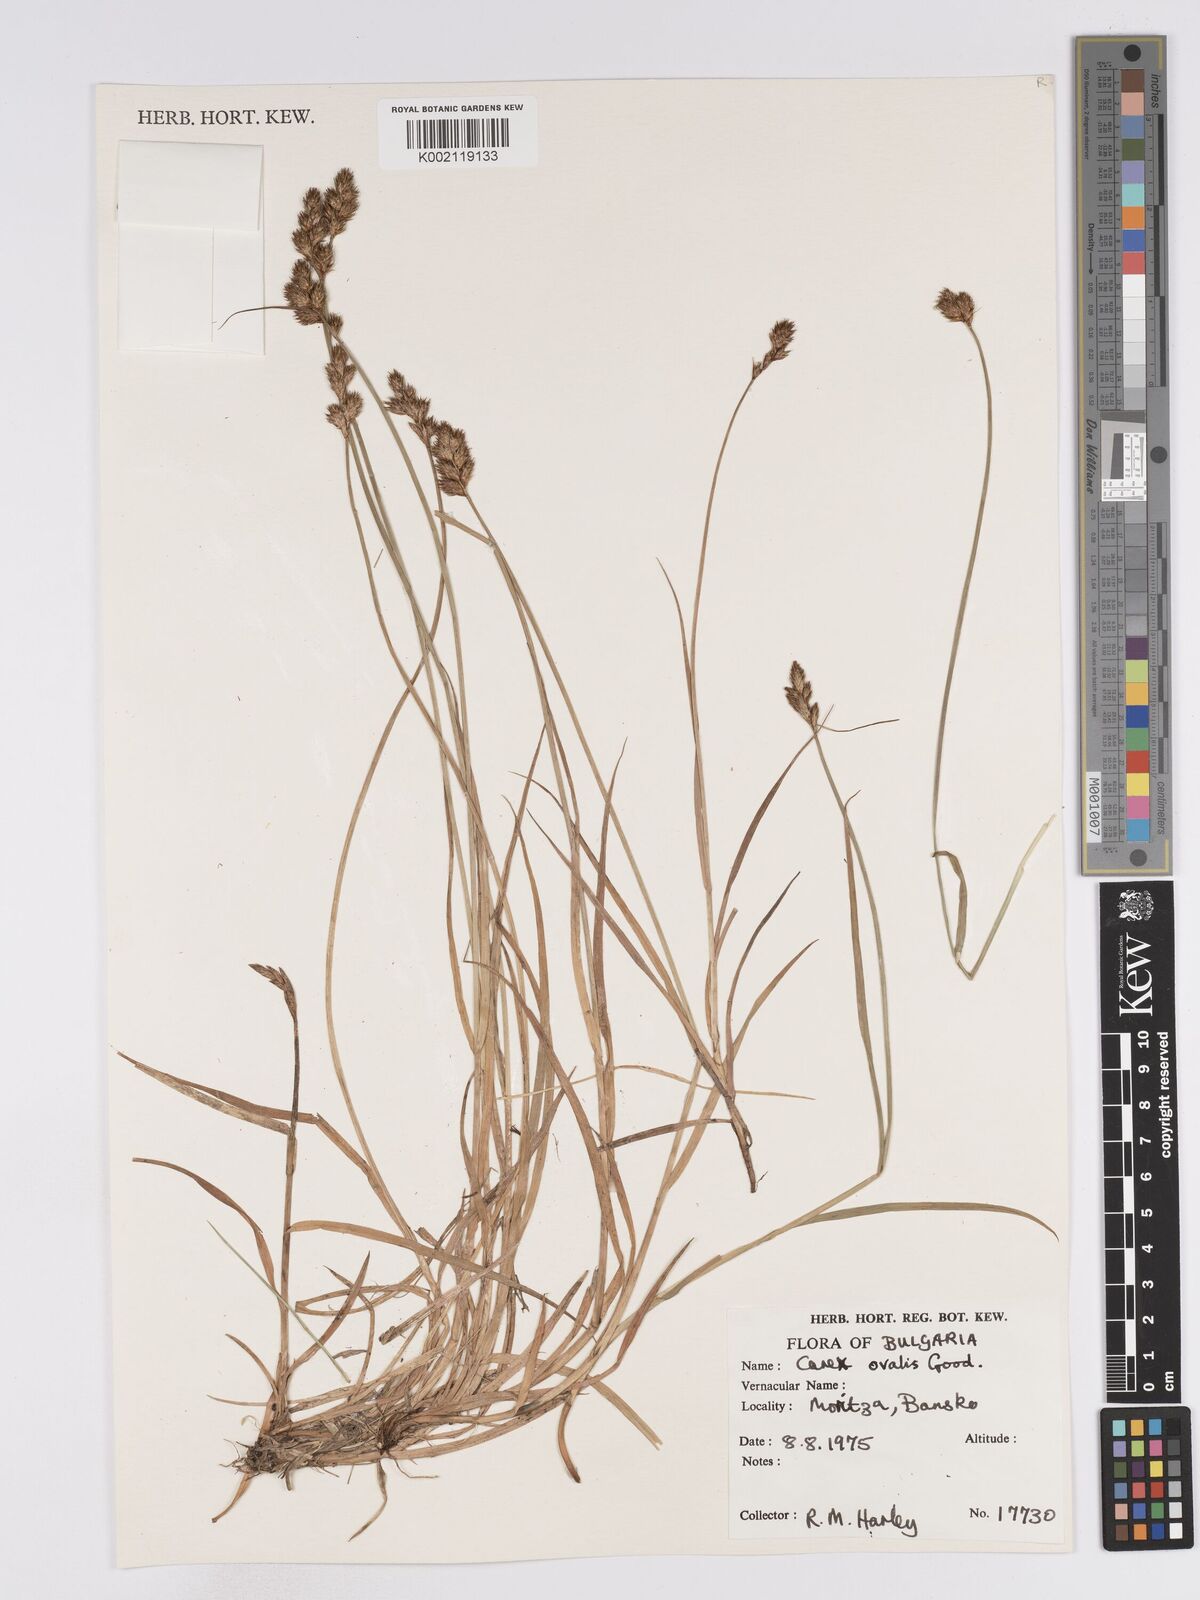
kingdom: Plantae
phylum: Tracheophyta
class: Liliopsida
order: Poales
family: Cyperaceae
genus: Carex
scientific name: Carex leporina
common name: Oval sedge
